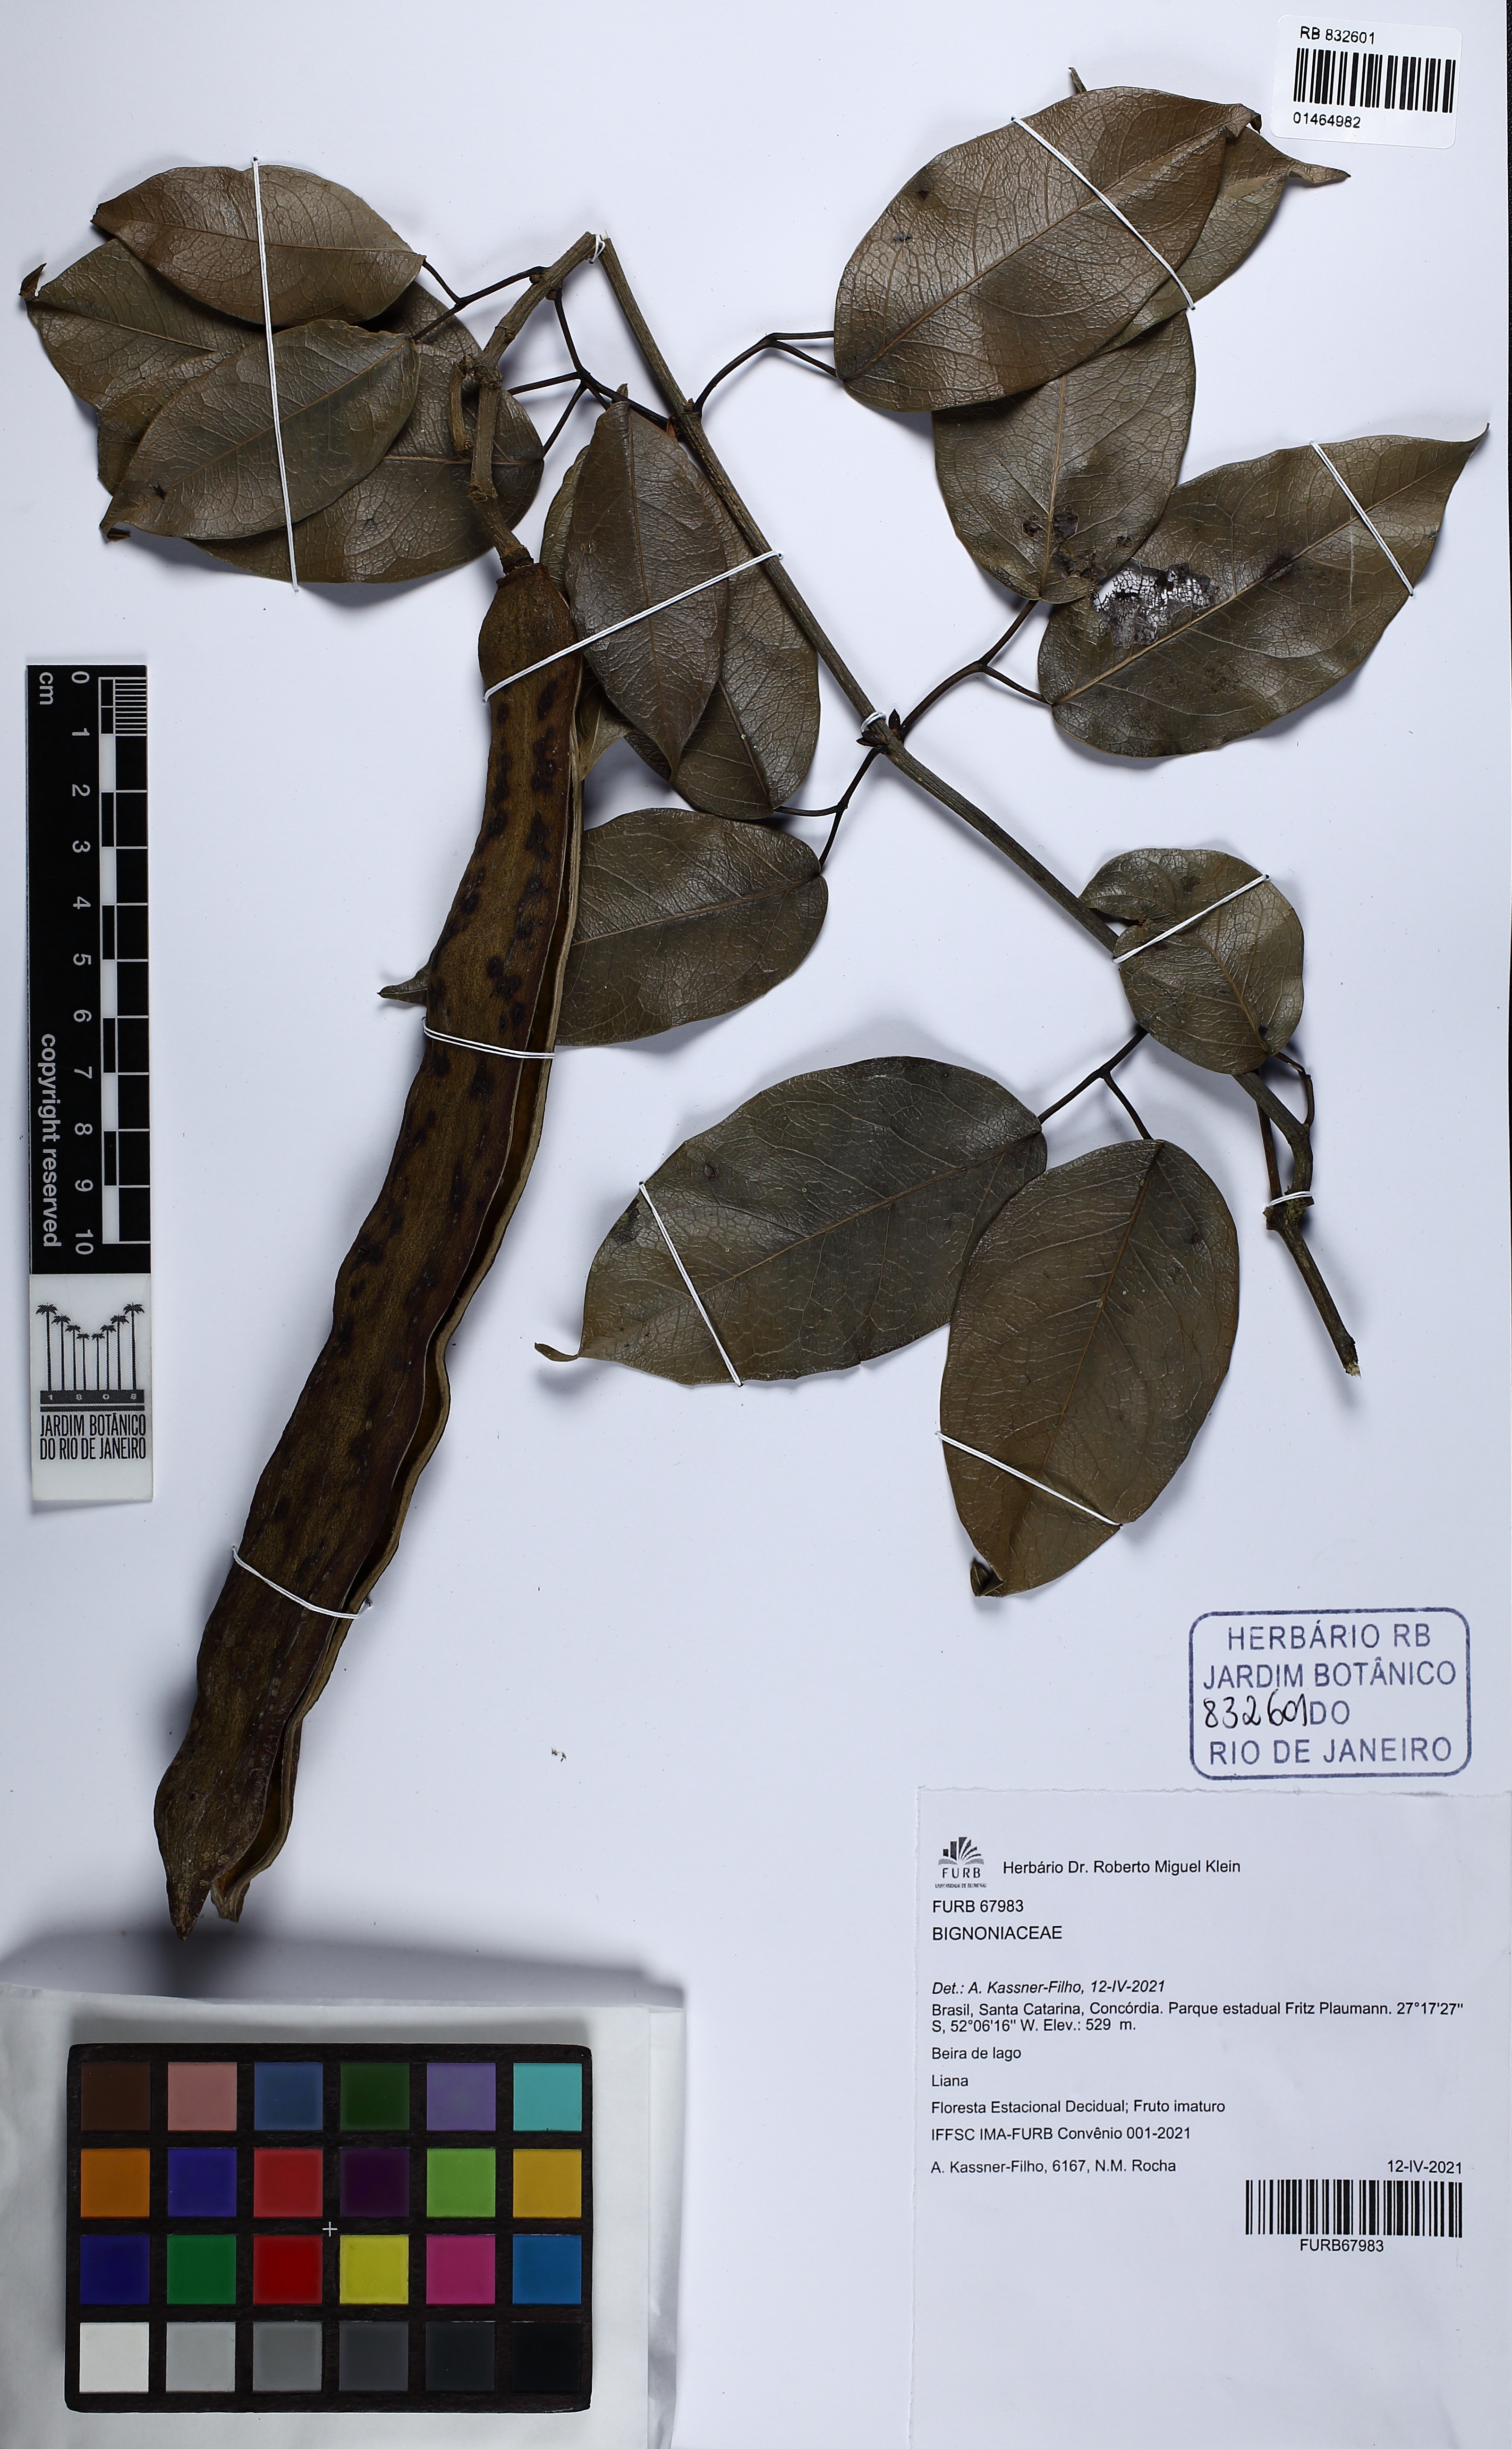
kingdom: Plantae
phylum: Tracheophyta
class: Magnoliopsida
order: Lamiales
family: Bignoniaceae
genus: Adenocalymma
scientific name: Adenocalymma
